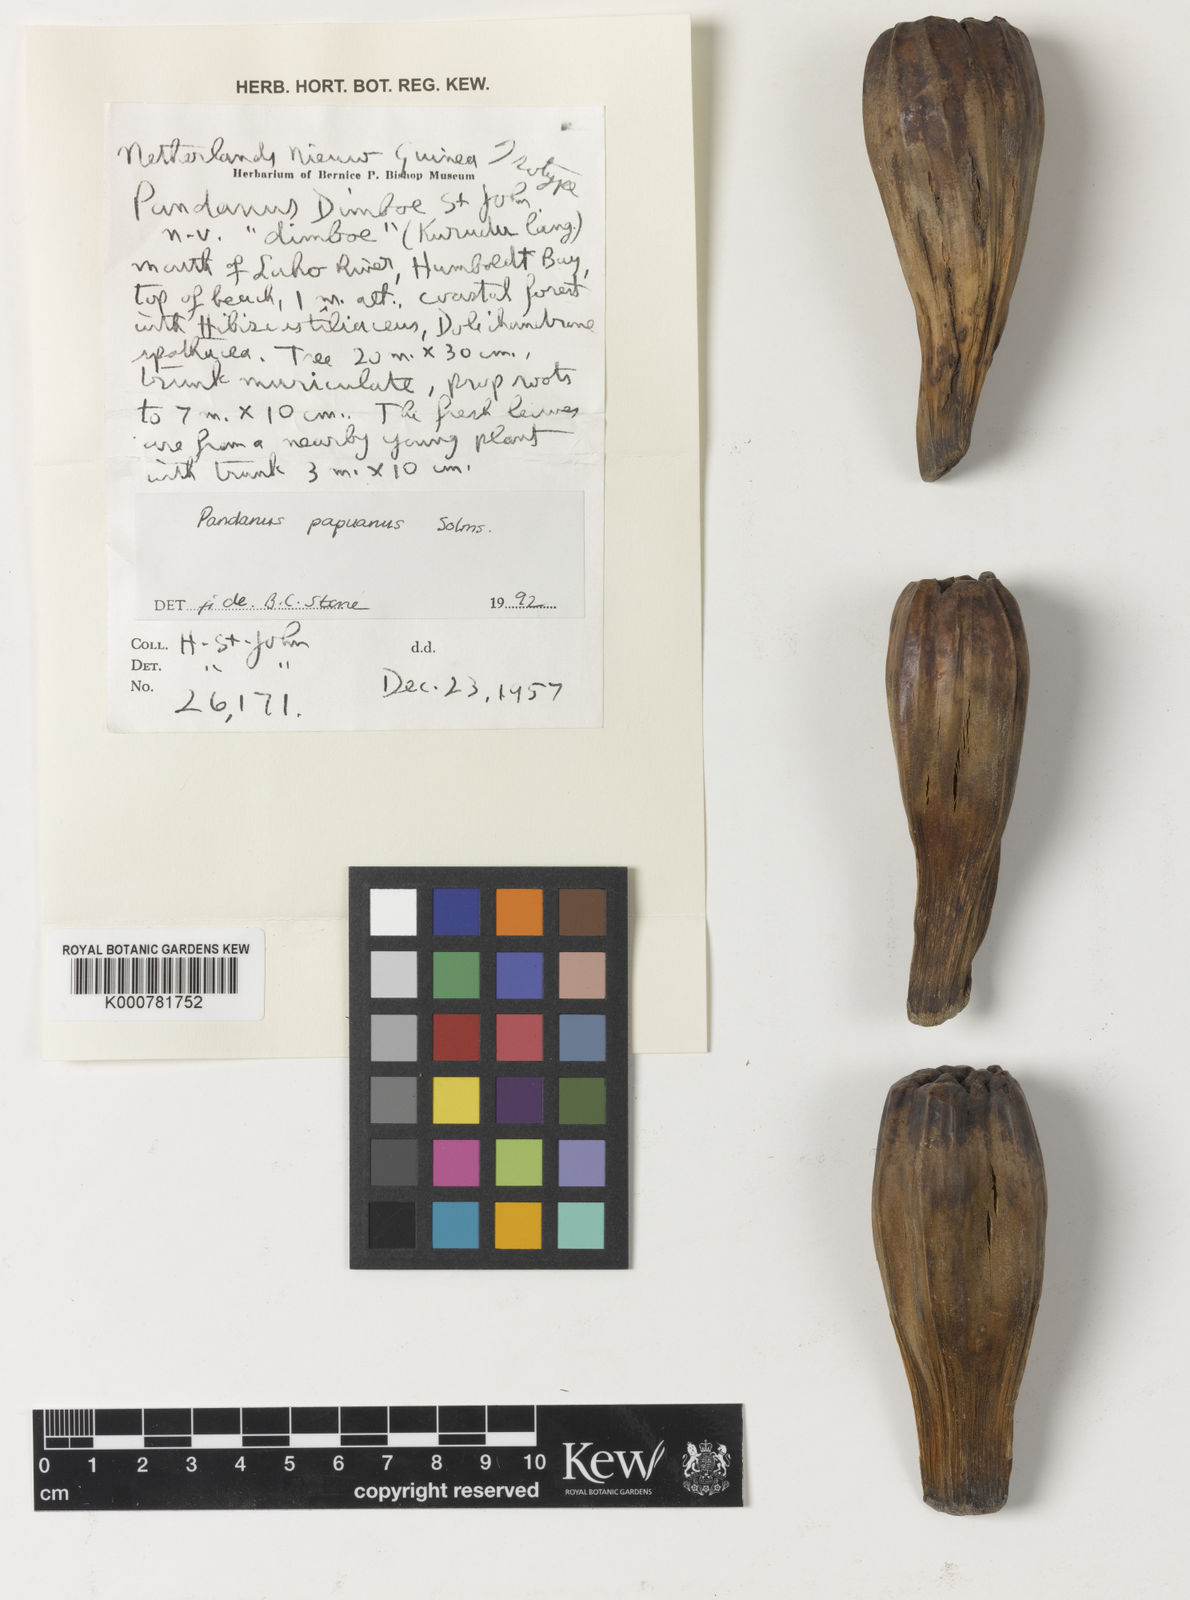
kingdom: Plantae
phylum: Tracheophyta
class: Liliopsida
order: Pandanales
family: Pandanaceae
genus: Pandanus
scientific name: Pandanus papuanus
